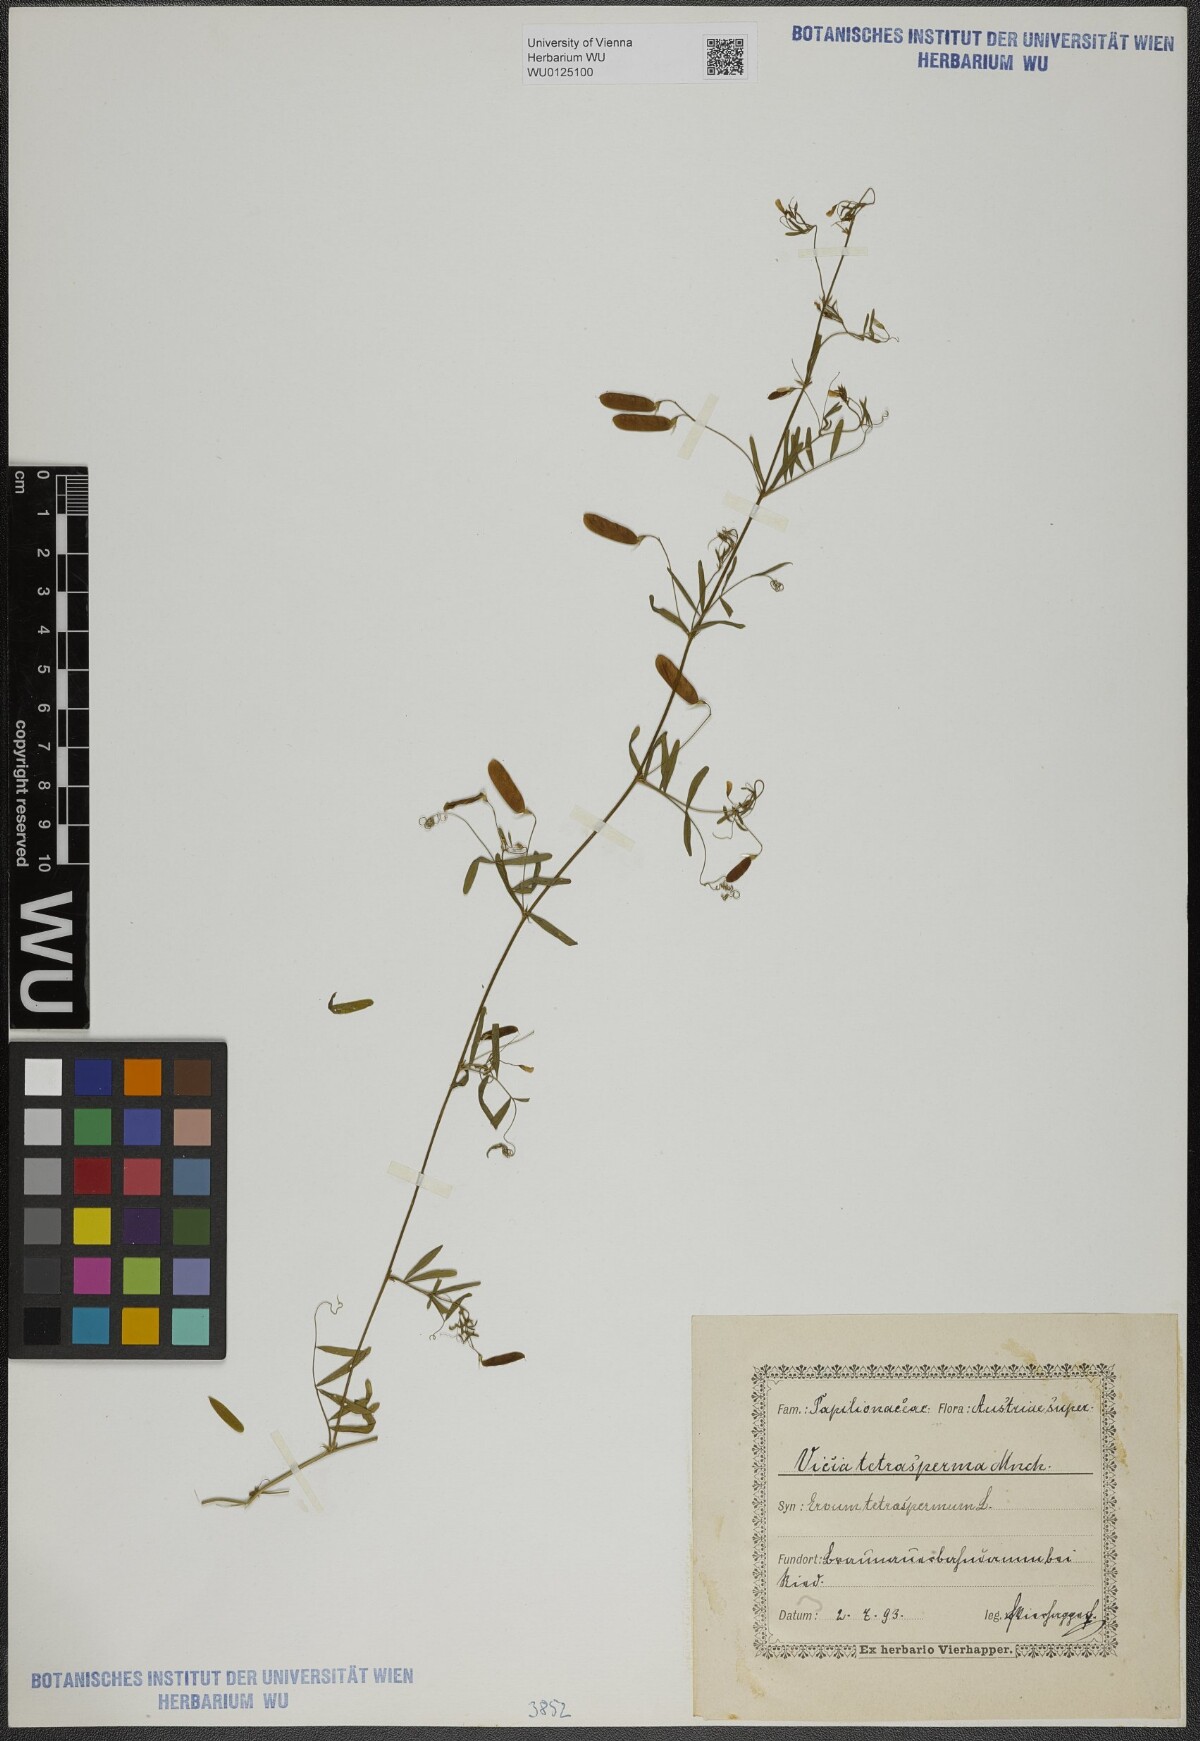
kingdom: Plantae
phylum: Tracheophyta
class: Magnoliopsida
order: Fabales
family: Fabaceae
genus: Vicia
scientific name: Vicia tetrasperma
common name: Smooth tare
